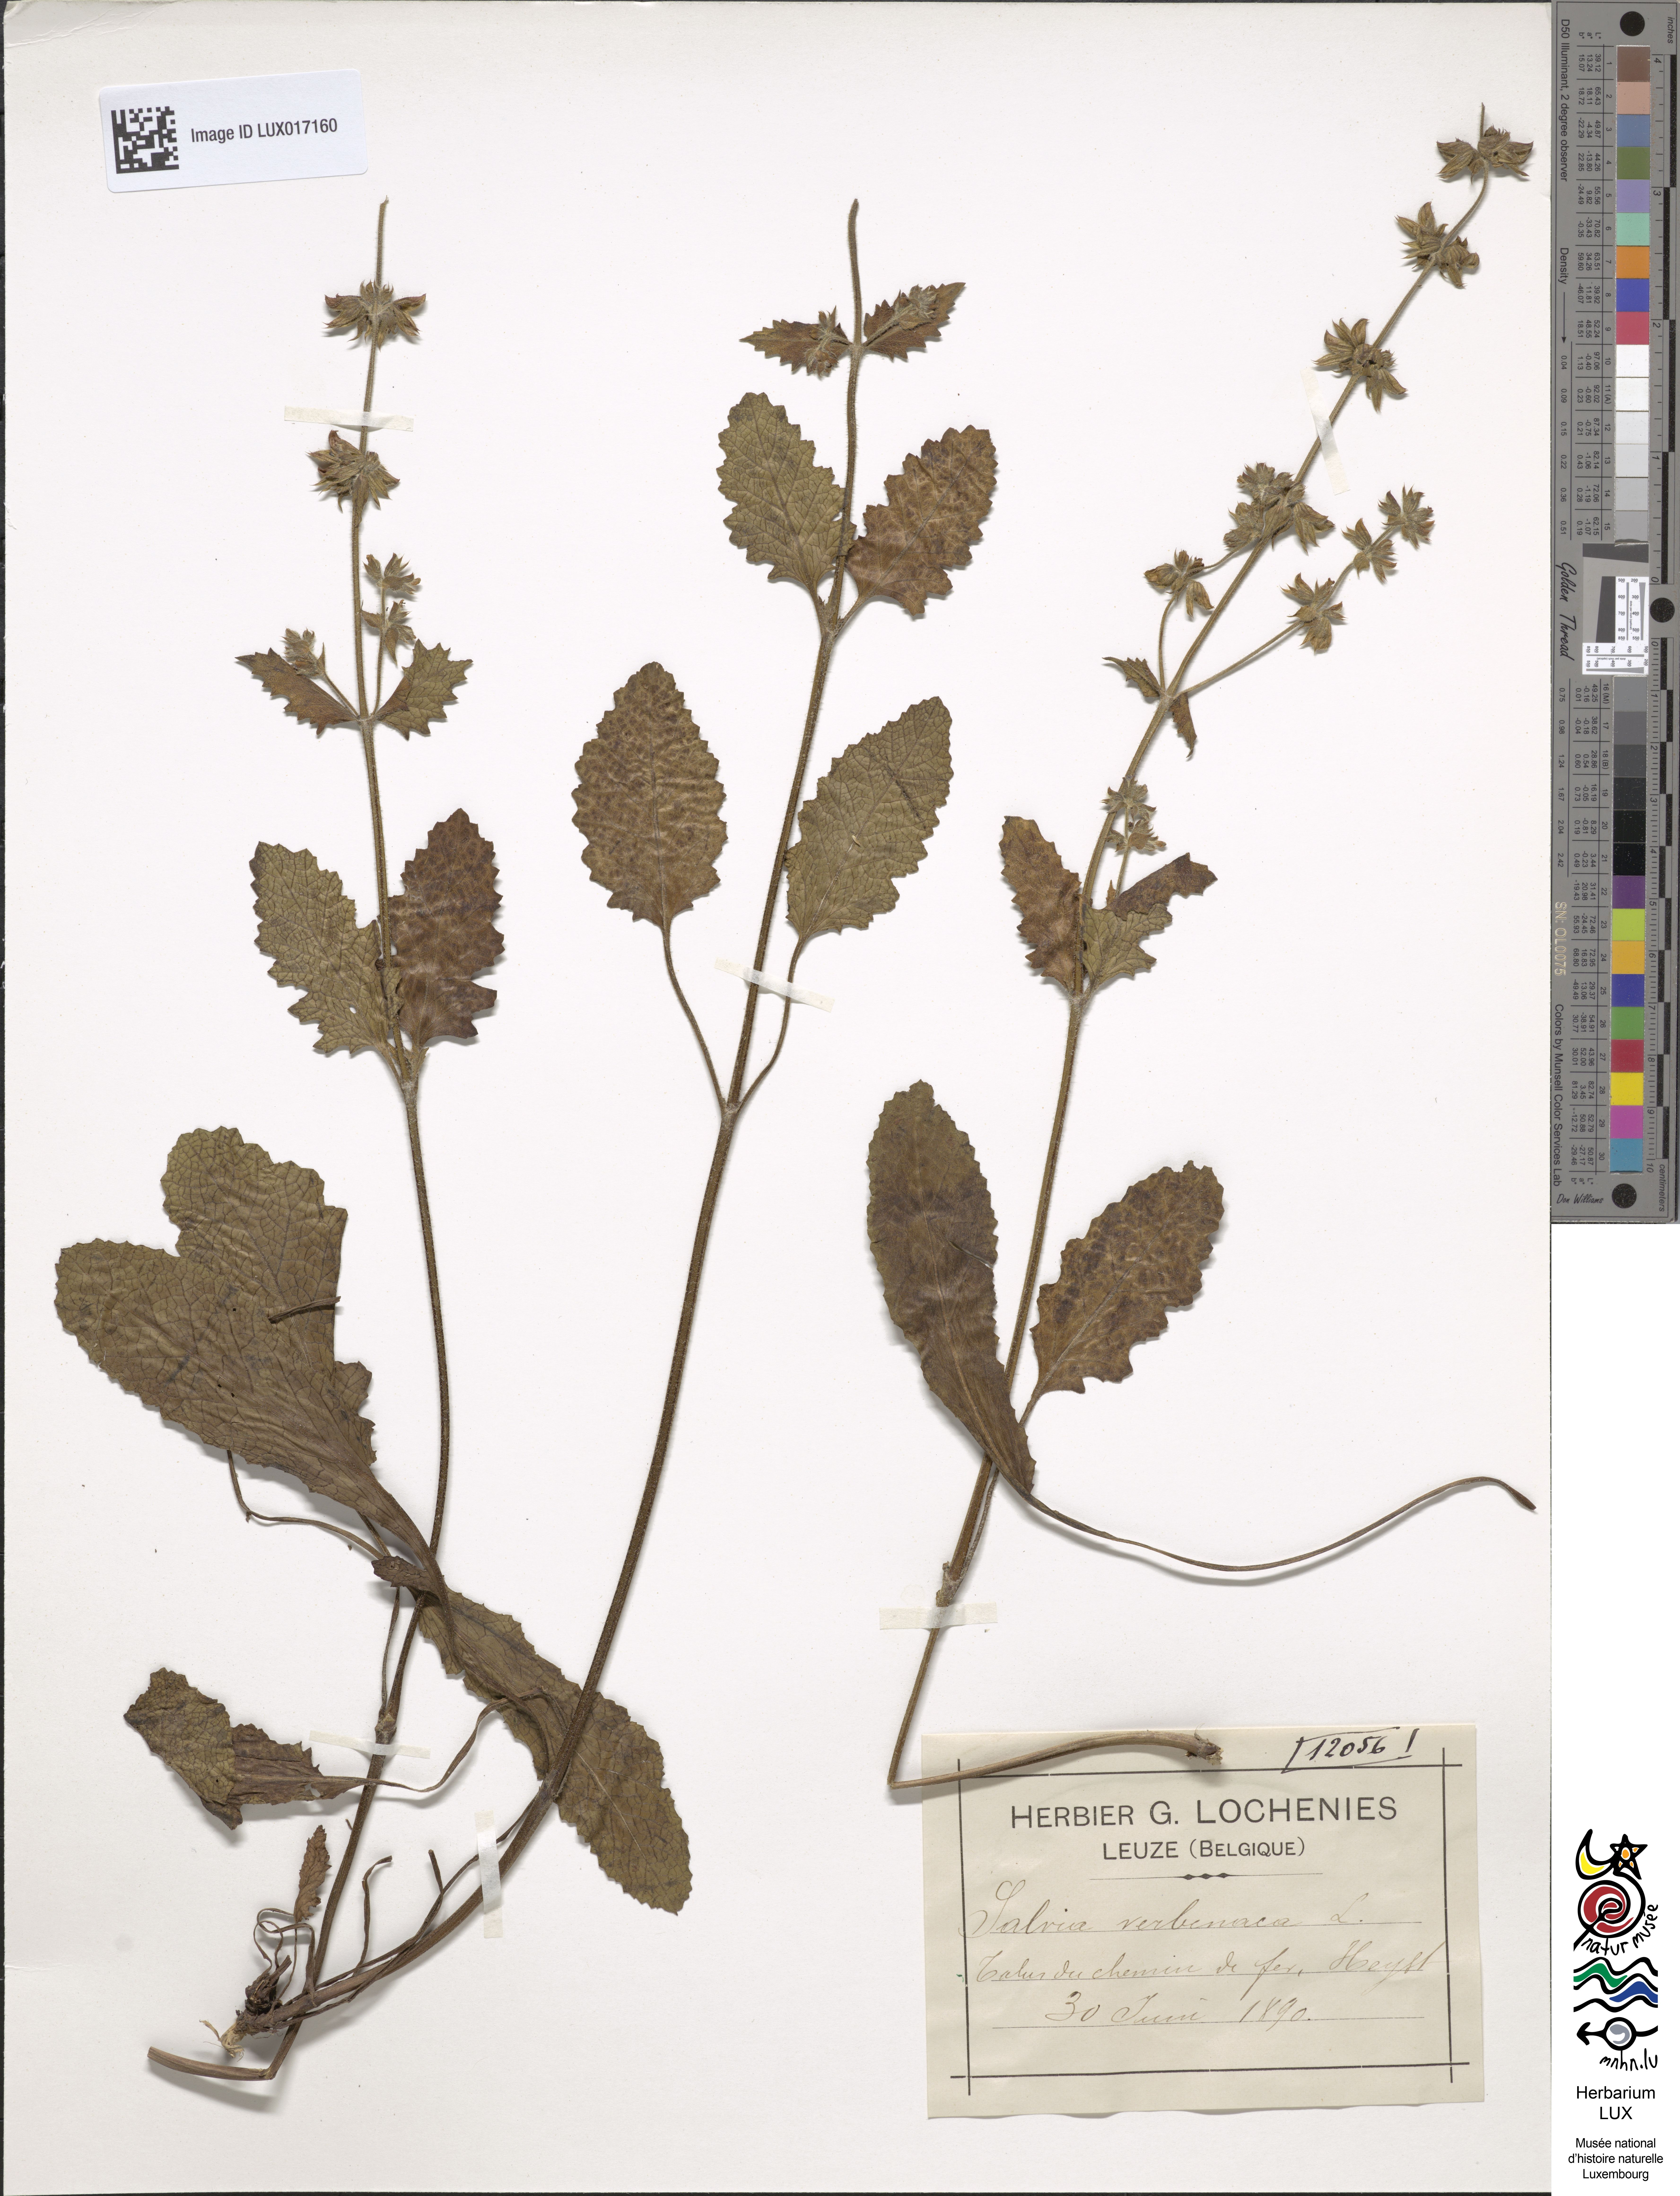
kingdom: Plantae
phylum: Tracheophyta
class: Magnoliopsida
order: Lamiales
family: Lamiaceae
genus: Salvia
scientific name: Salvia verbenaca
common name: Wild clary
